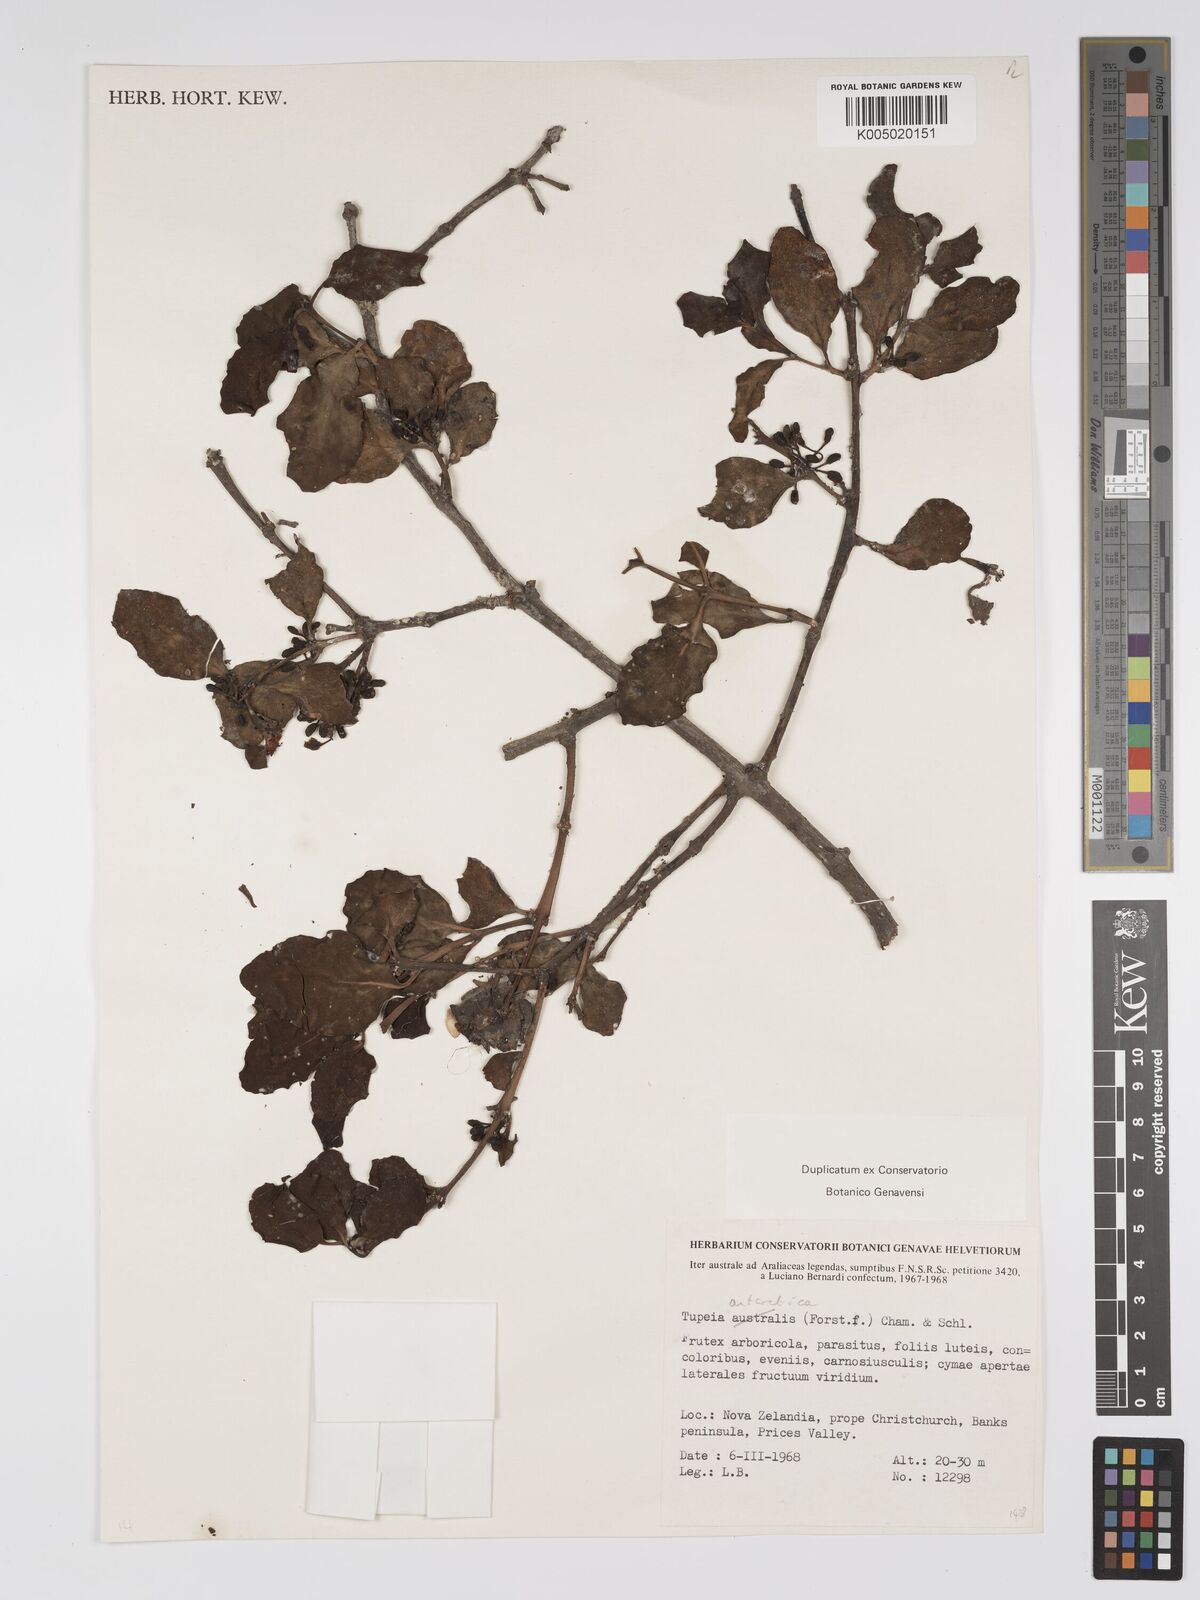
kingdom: Plantae
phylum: Tracheophyta
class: Magnoliopsida
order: Santalales
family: Loranthaceae
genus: Tupeia
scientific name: Tupeia antarctica
